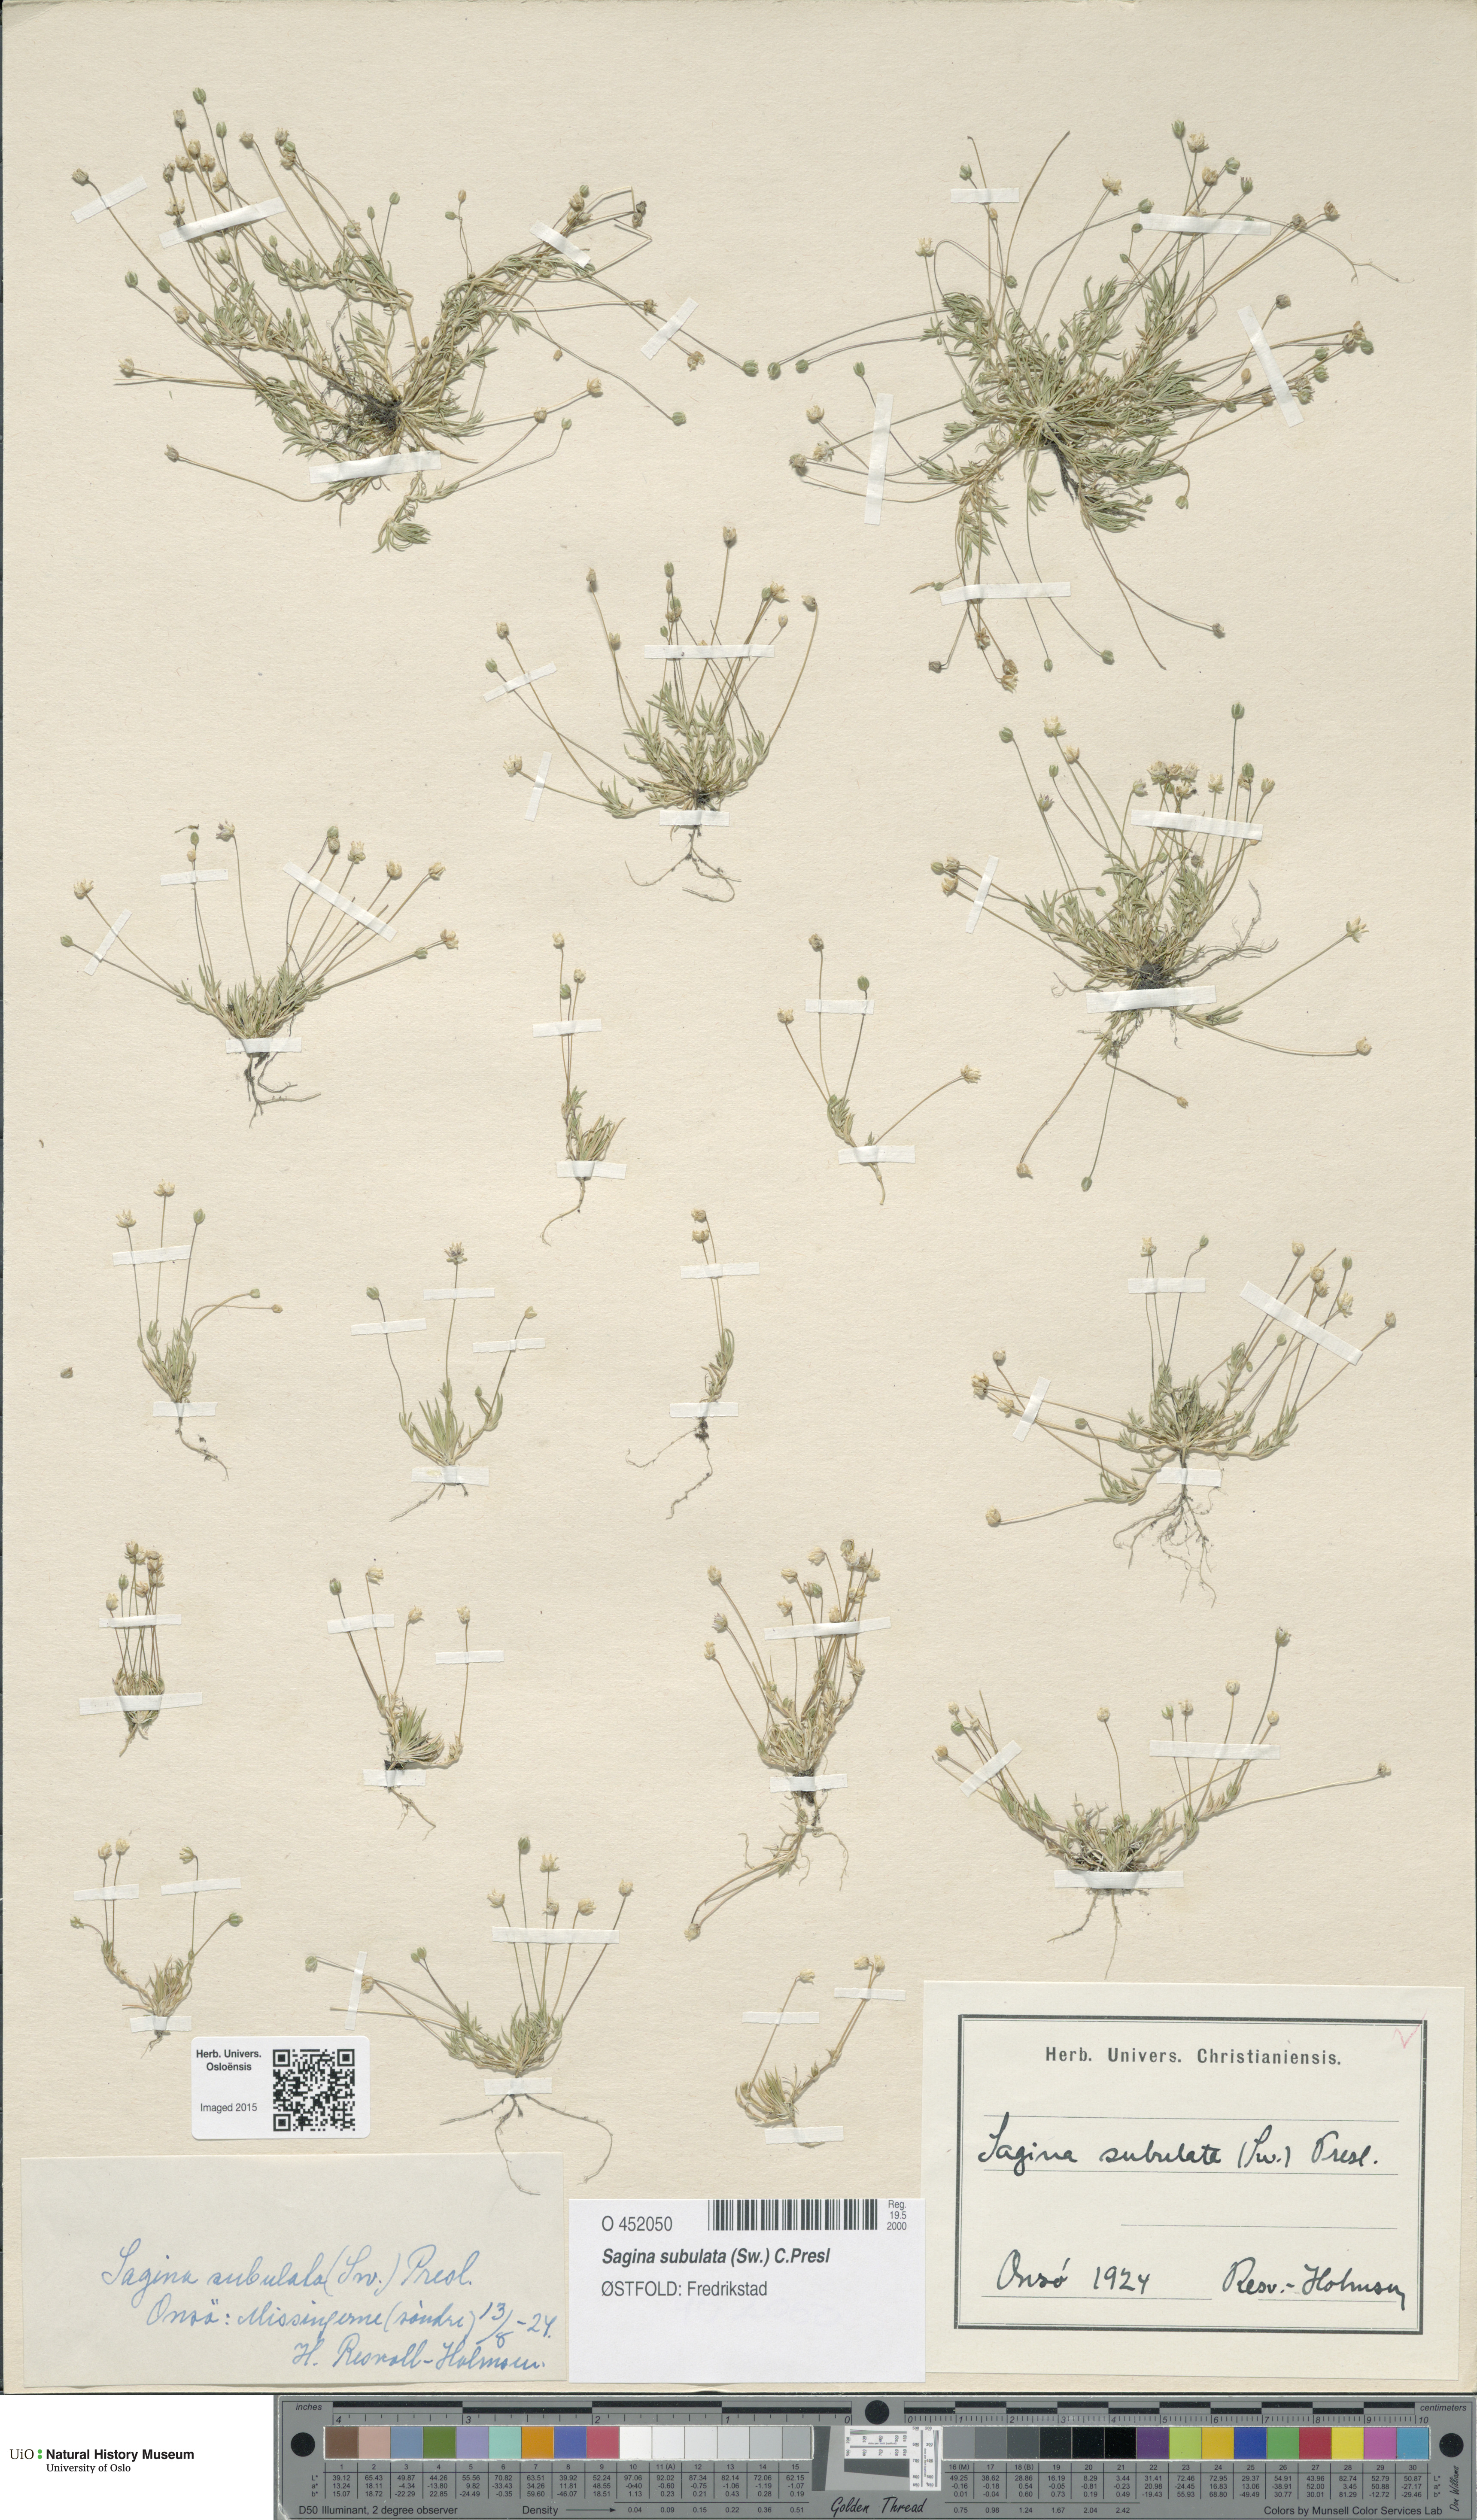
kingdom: Plantae
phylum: Tracheophyta
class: Magnoliopsida
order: Caryophyllales
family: Caryophyllaceae
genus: Sagina
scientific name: Sagina alexandrae
